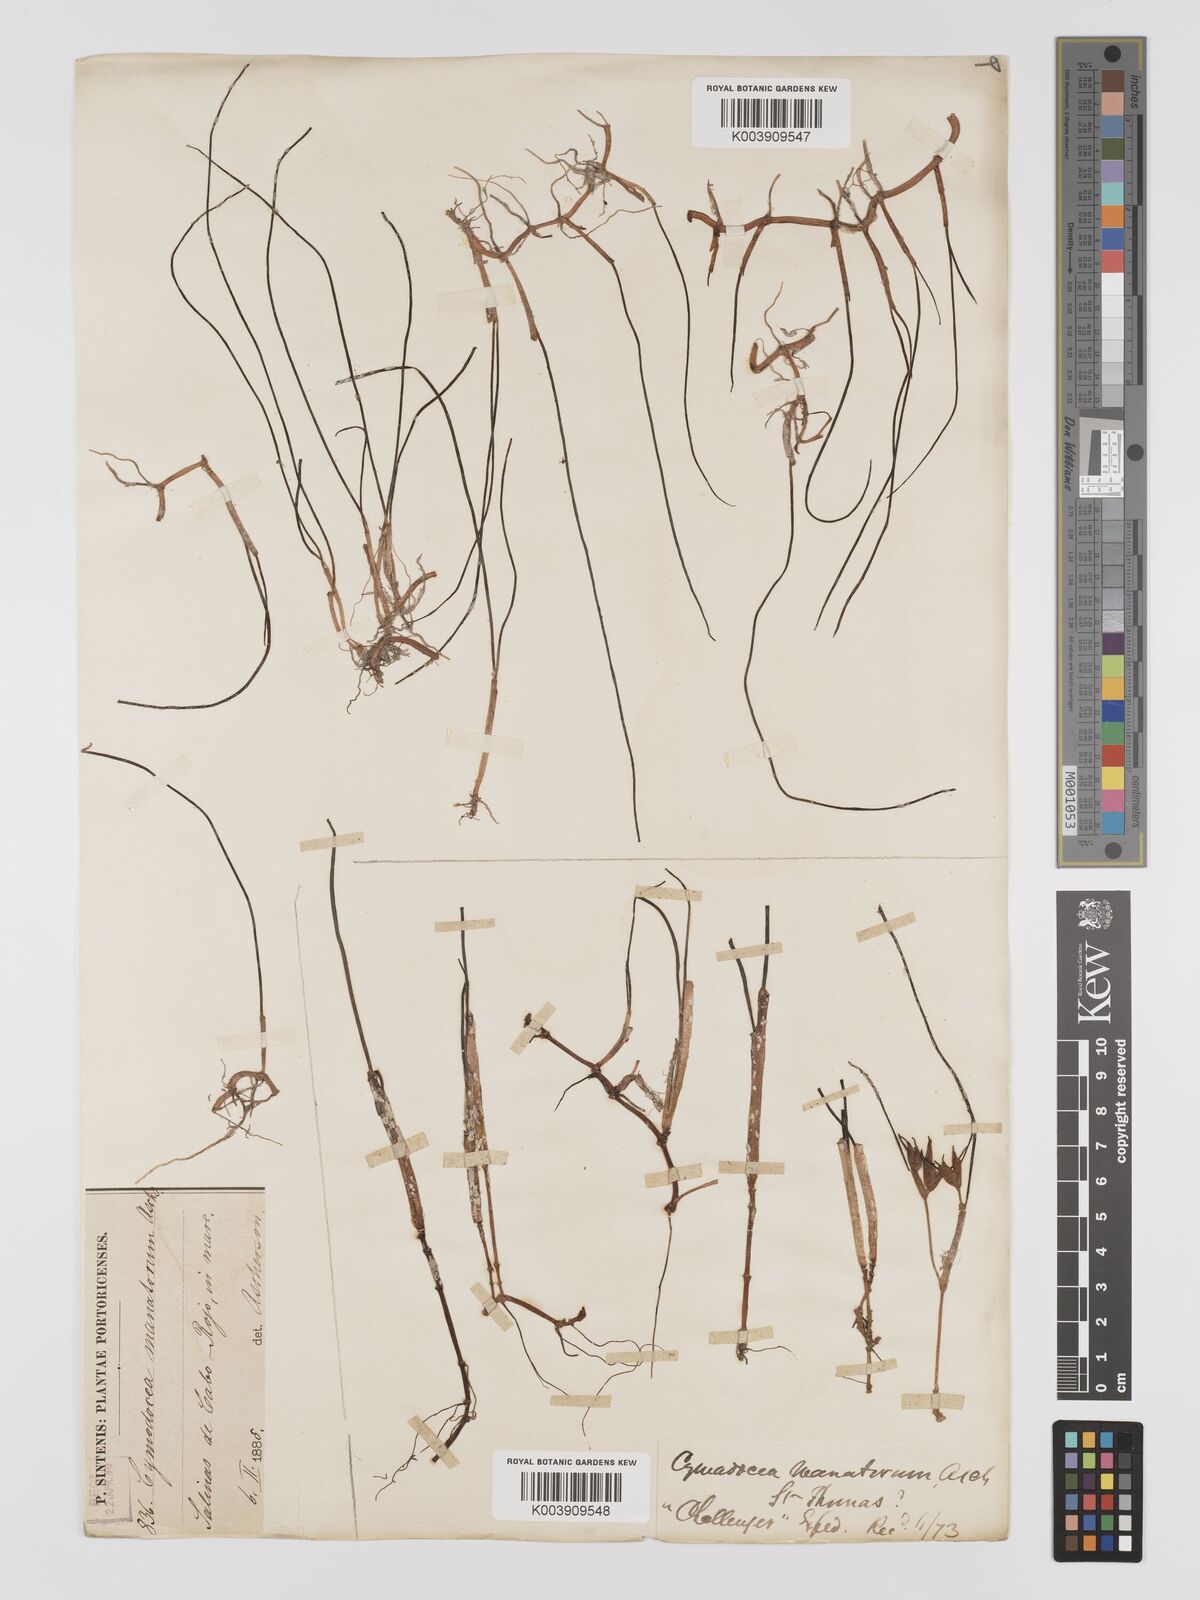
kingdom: Plantae
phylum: Tracheophyta
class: Liliopsida
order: Alismatales
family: Cymodoceaceae
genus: Syringodium
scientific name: Syringodium
